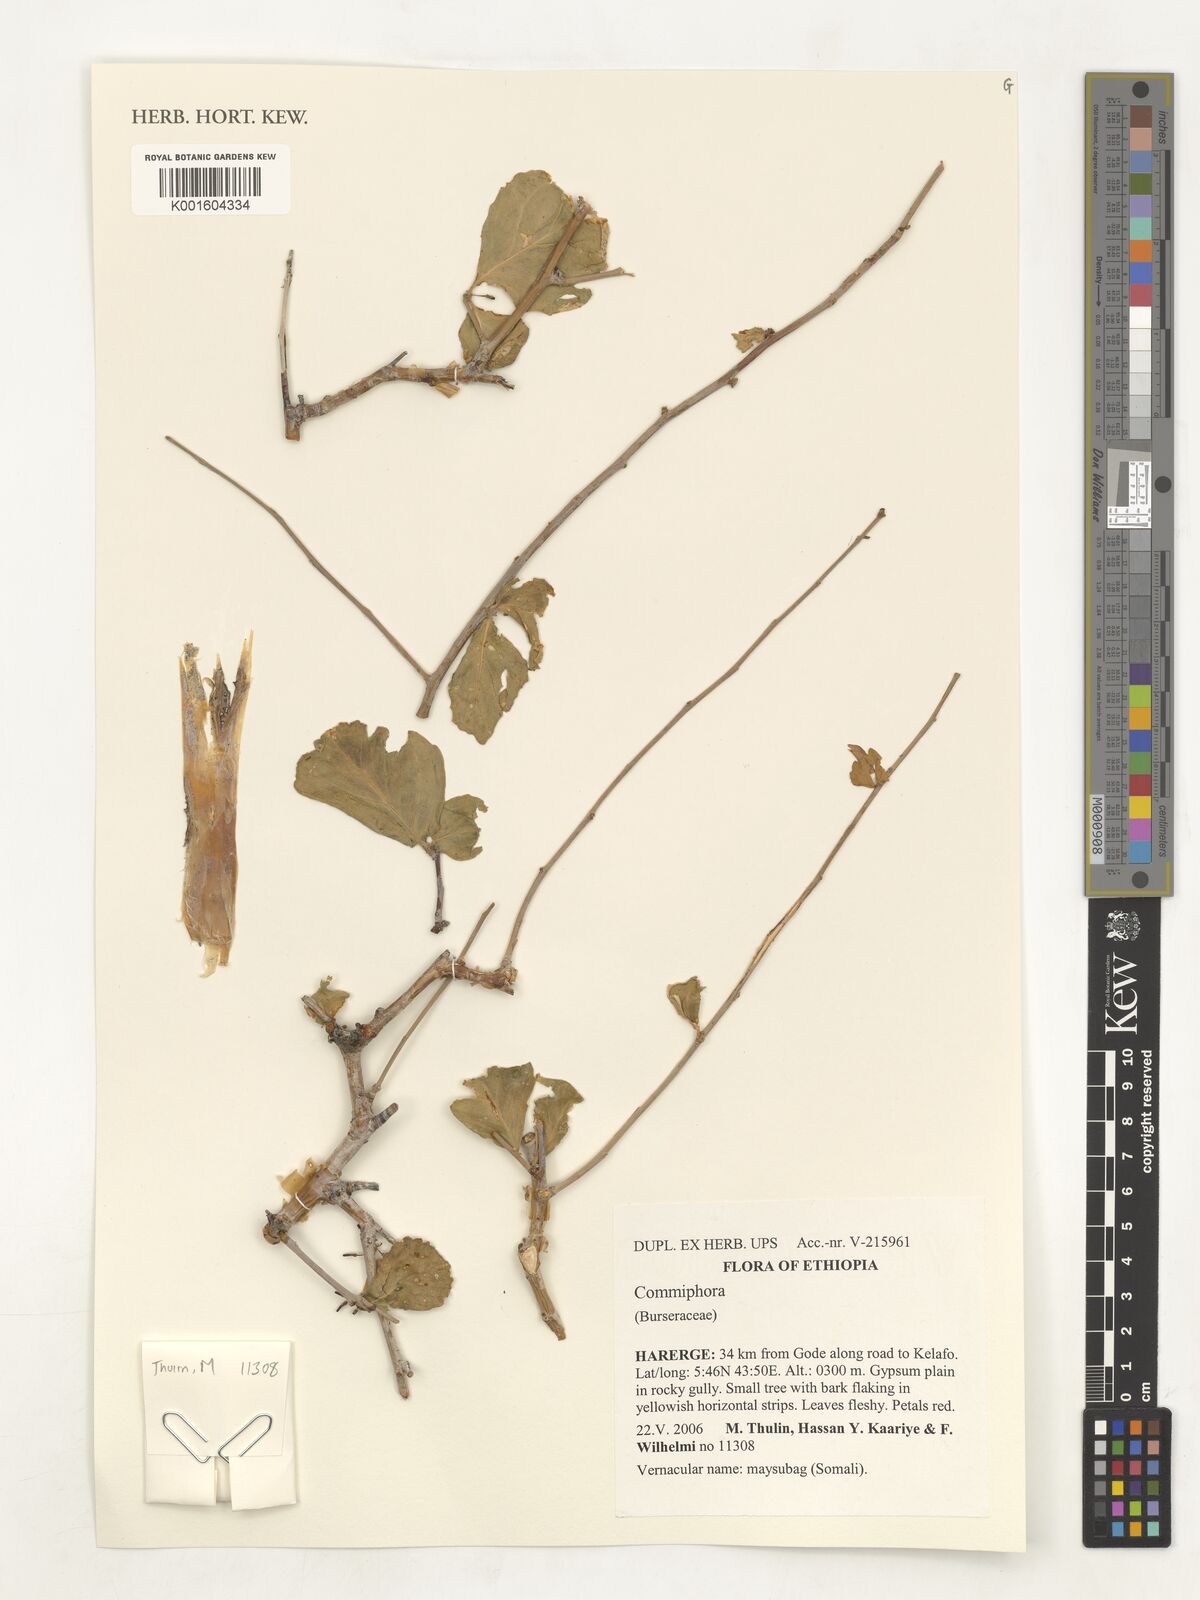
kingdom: Plantae
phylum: Tracheophyta
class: Magnoliopsida
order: Sapindales
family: Burseraceae
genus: Commiphora
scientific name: Commiphora
